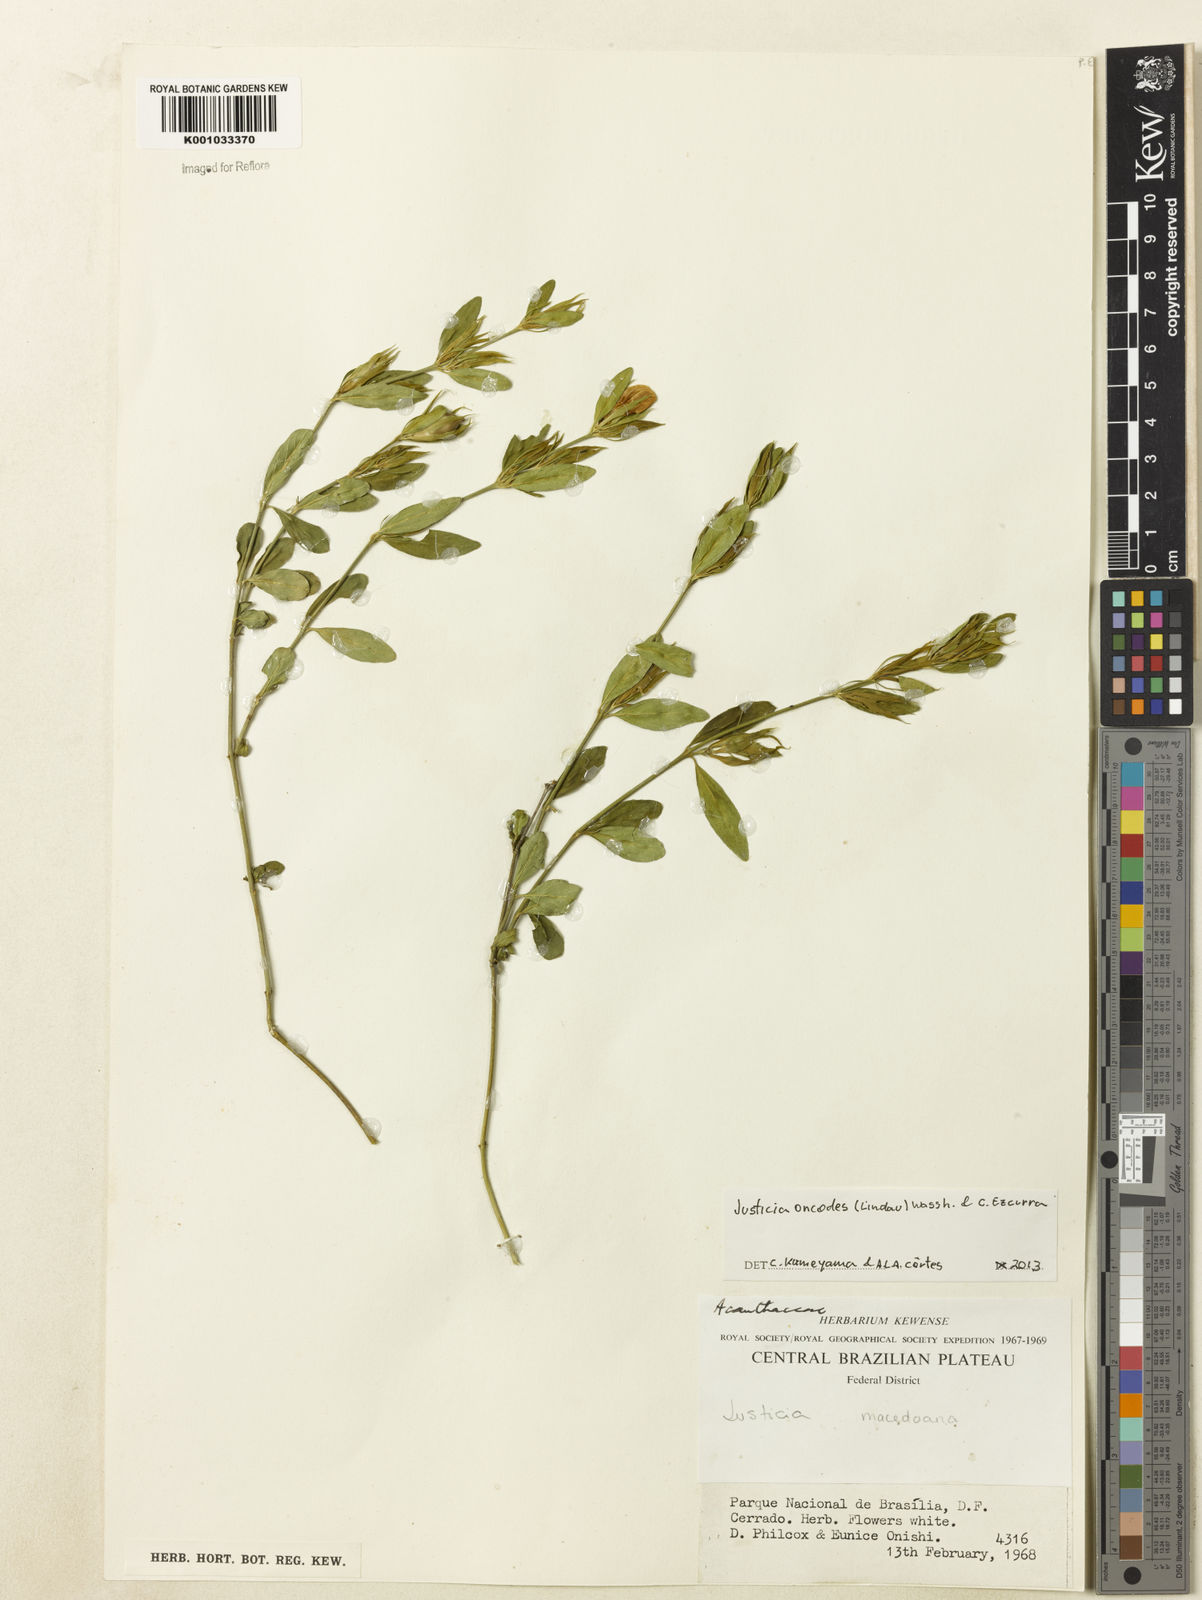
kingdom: Plantae
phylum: Tracheophyta
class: Magnoliopsida
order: Lamiales
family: Acanthaceae
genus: Justicia
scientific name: Justicia oncodes
